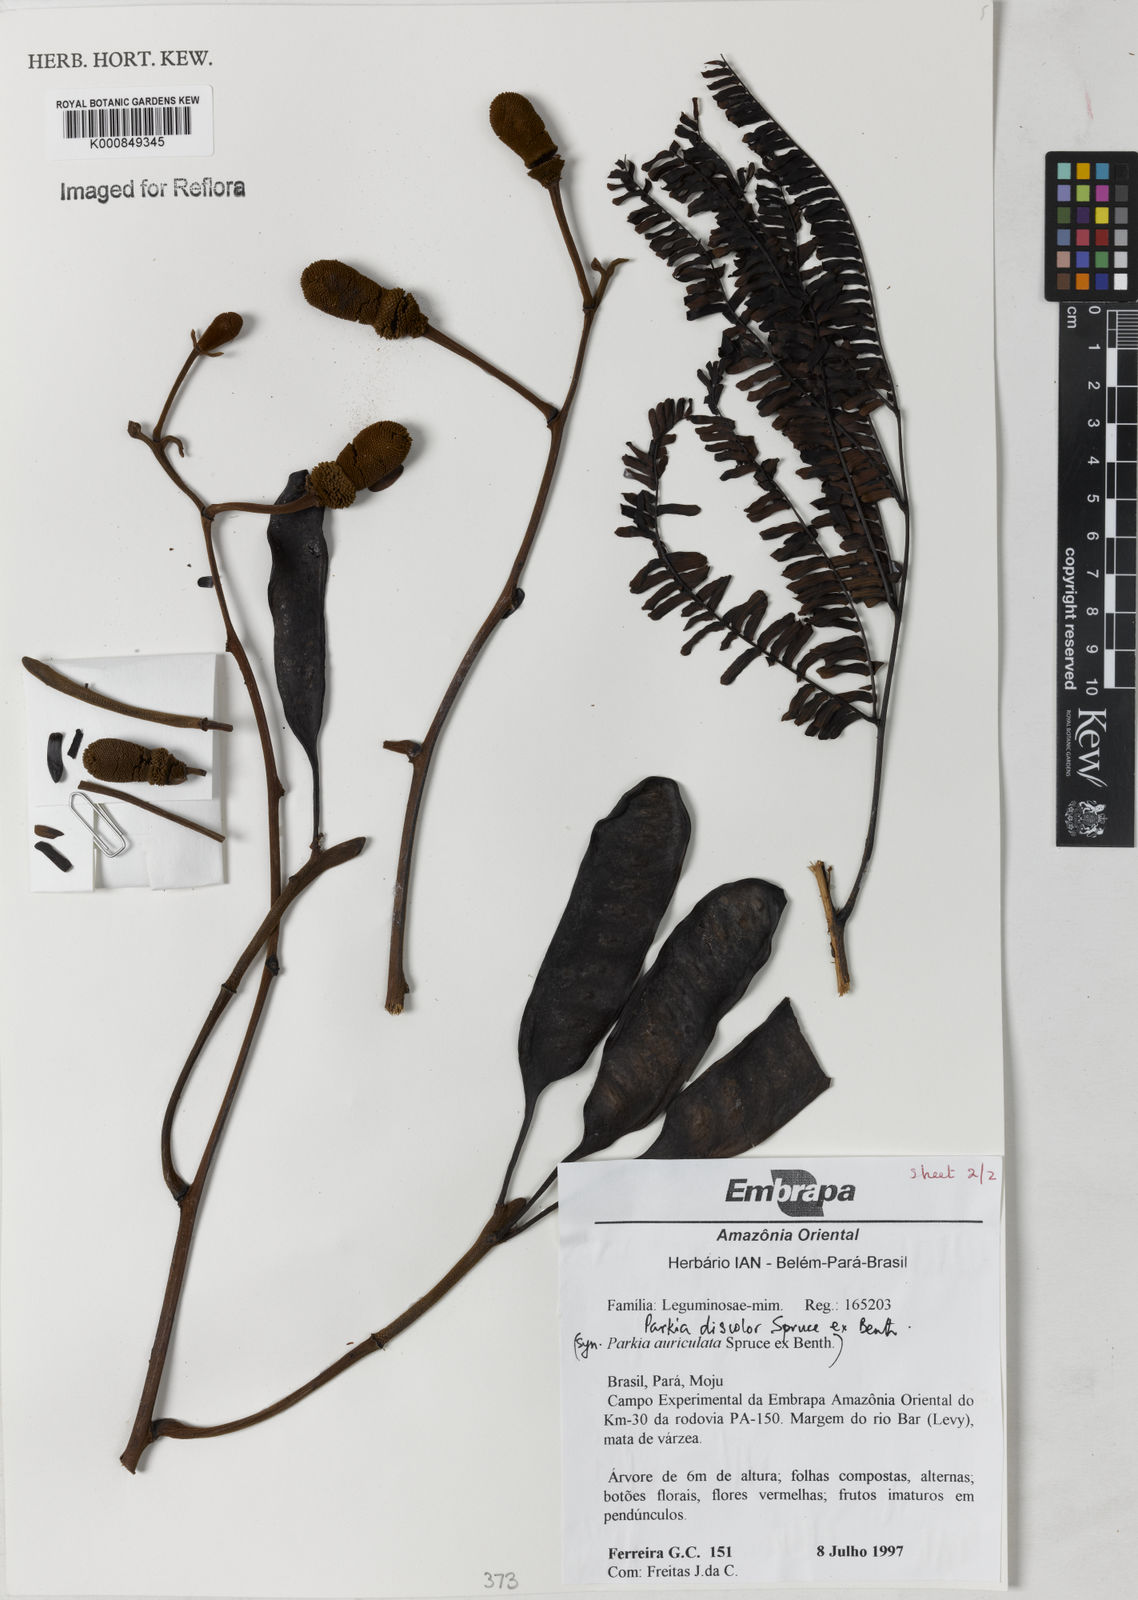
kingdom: Plantae
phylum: Tracheophyta
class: Magnoliopsida
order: Fabales
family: Fabaceae
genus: Parkia
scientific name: Parkia discolor
